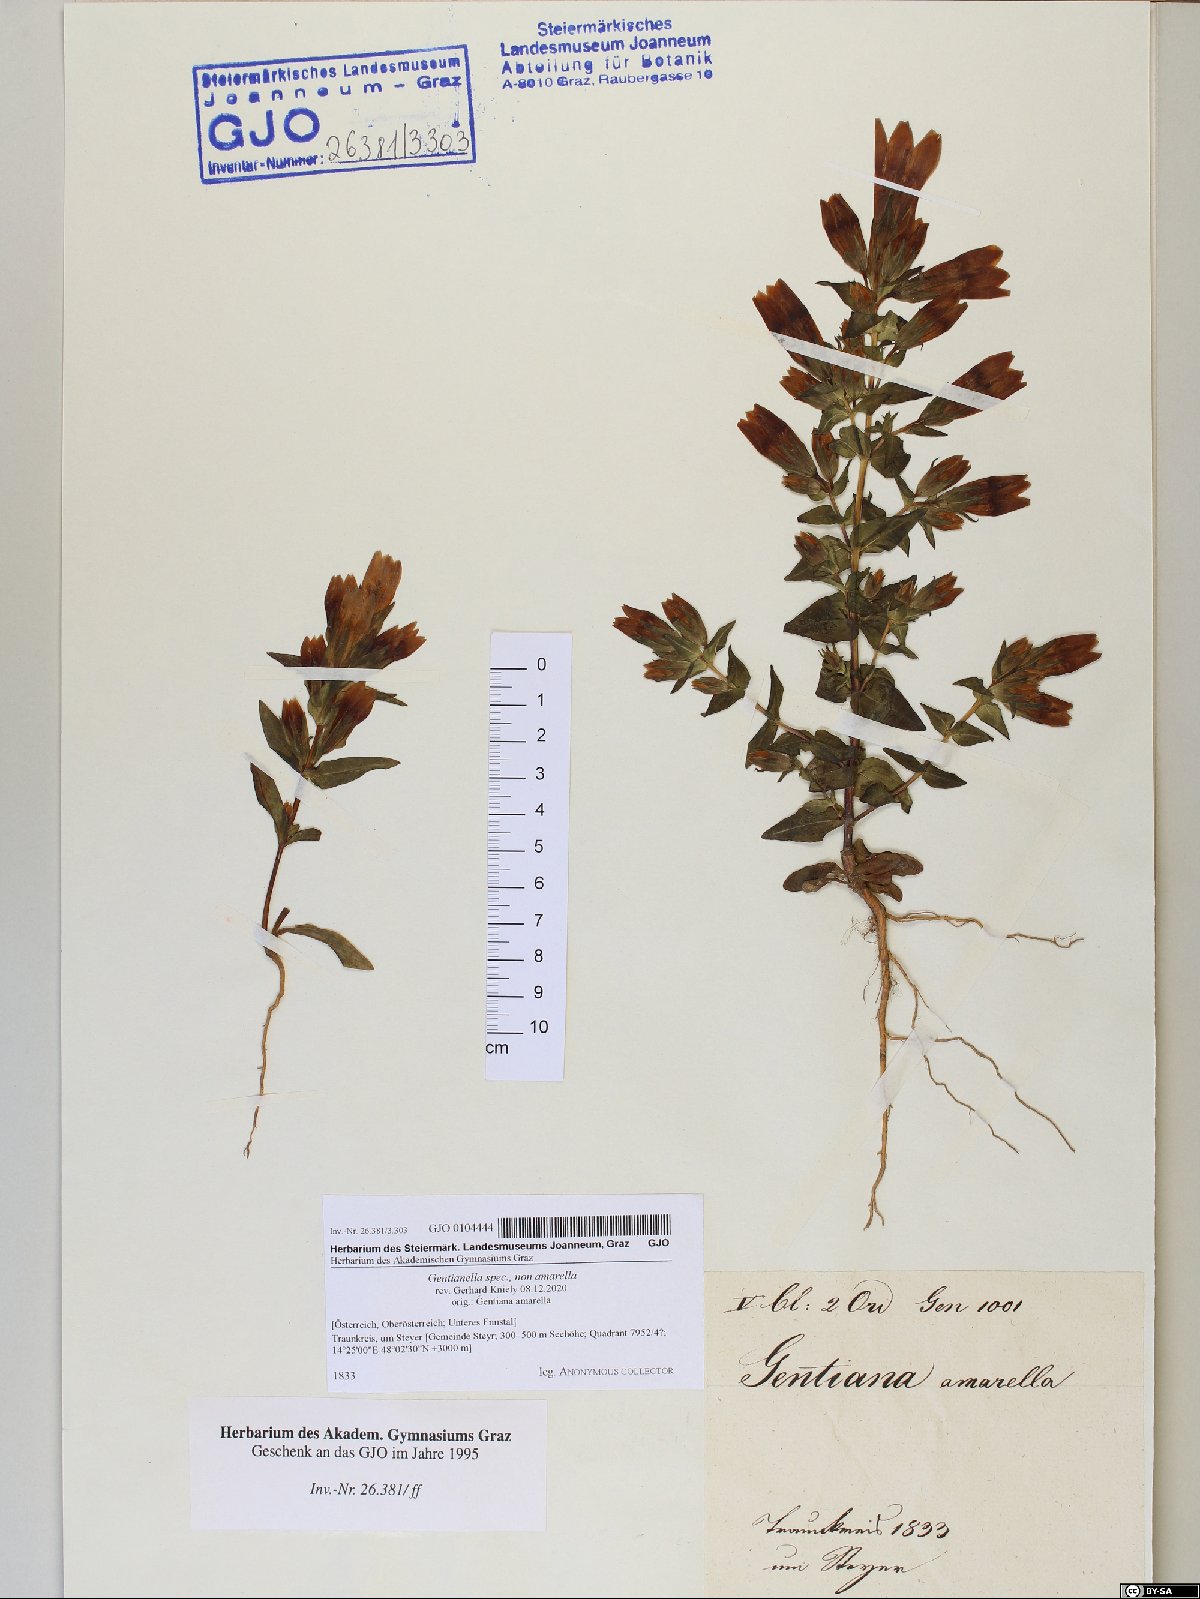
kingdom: Plantae
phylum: Tracheophyta
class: Magnoliopsida
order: Gentianales
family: Gentianaceae
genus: Gentianella
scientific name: Gentianella
